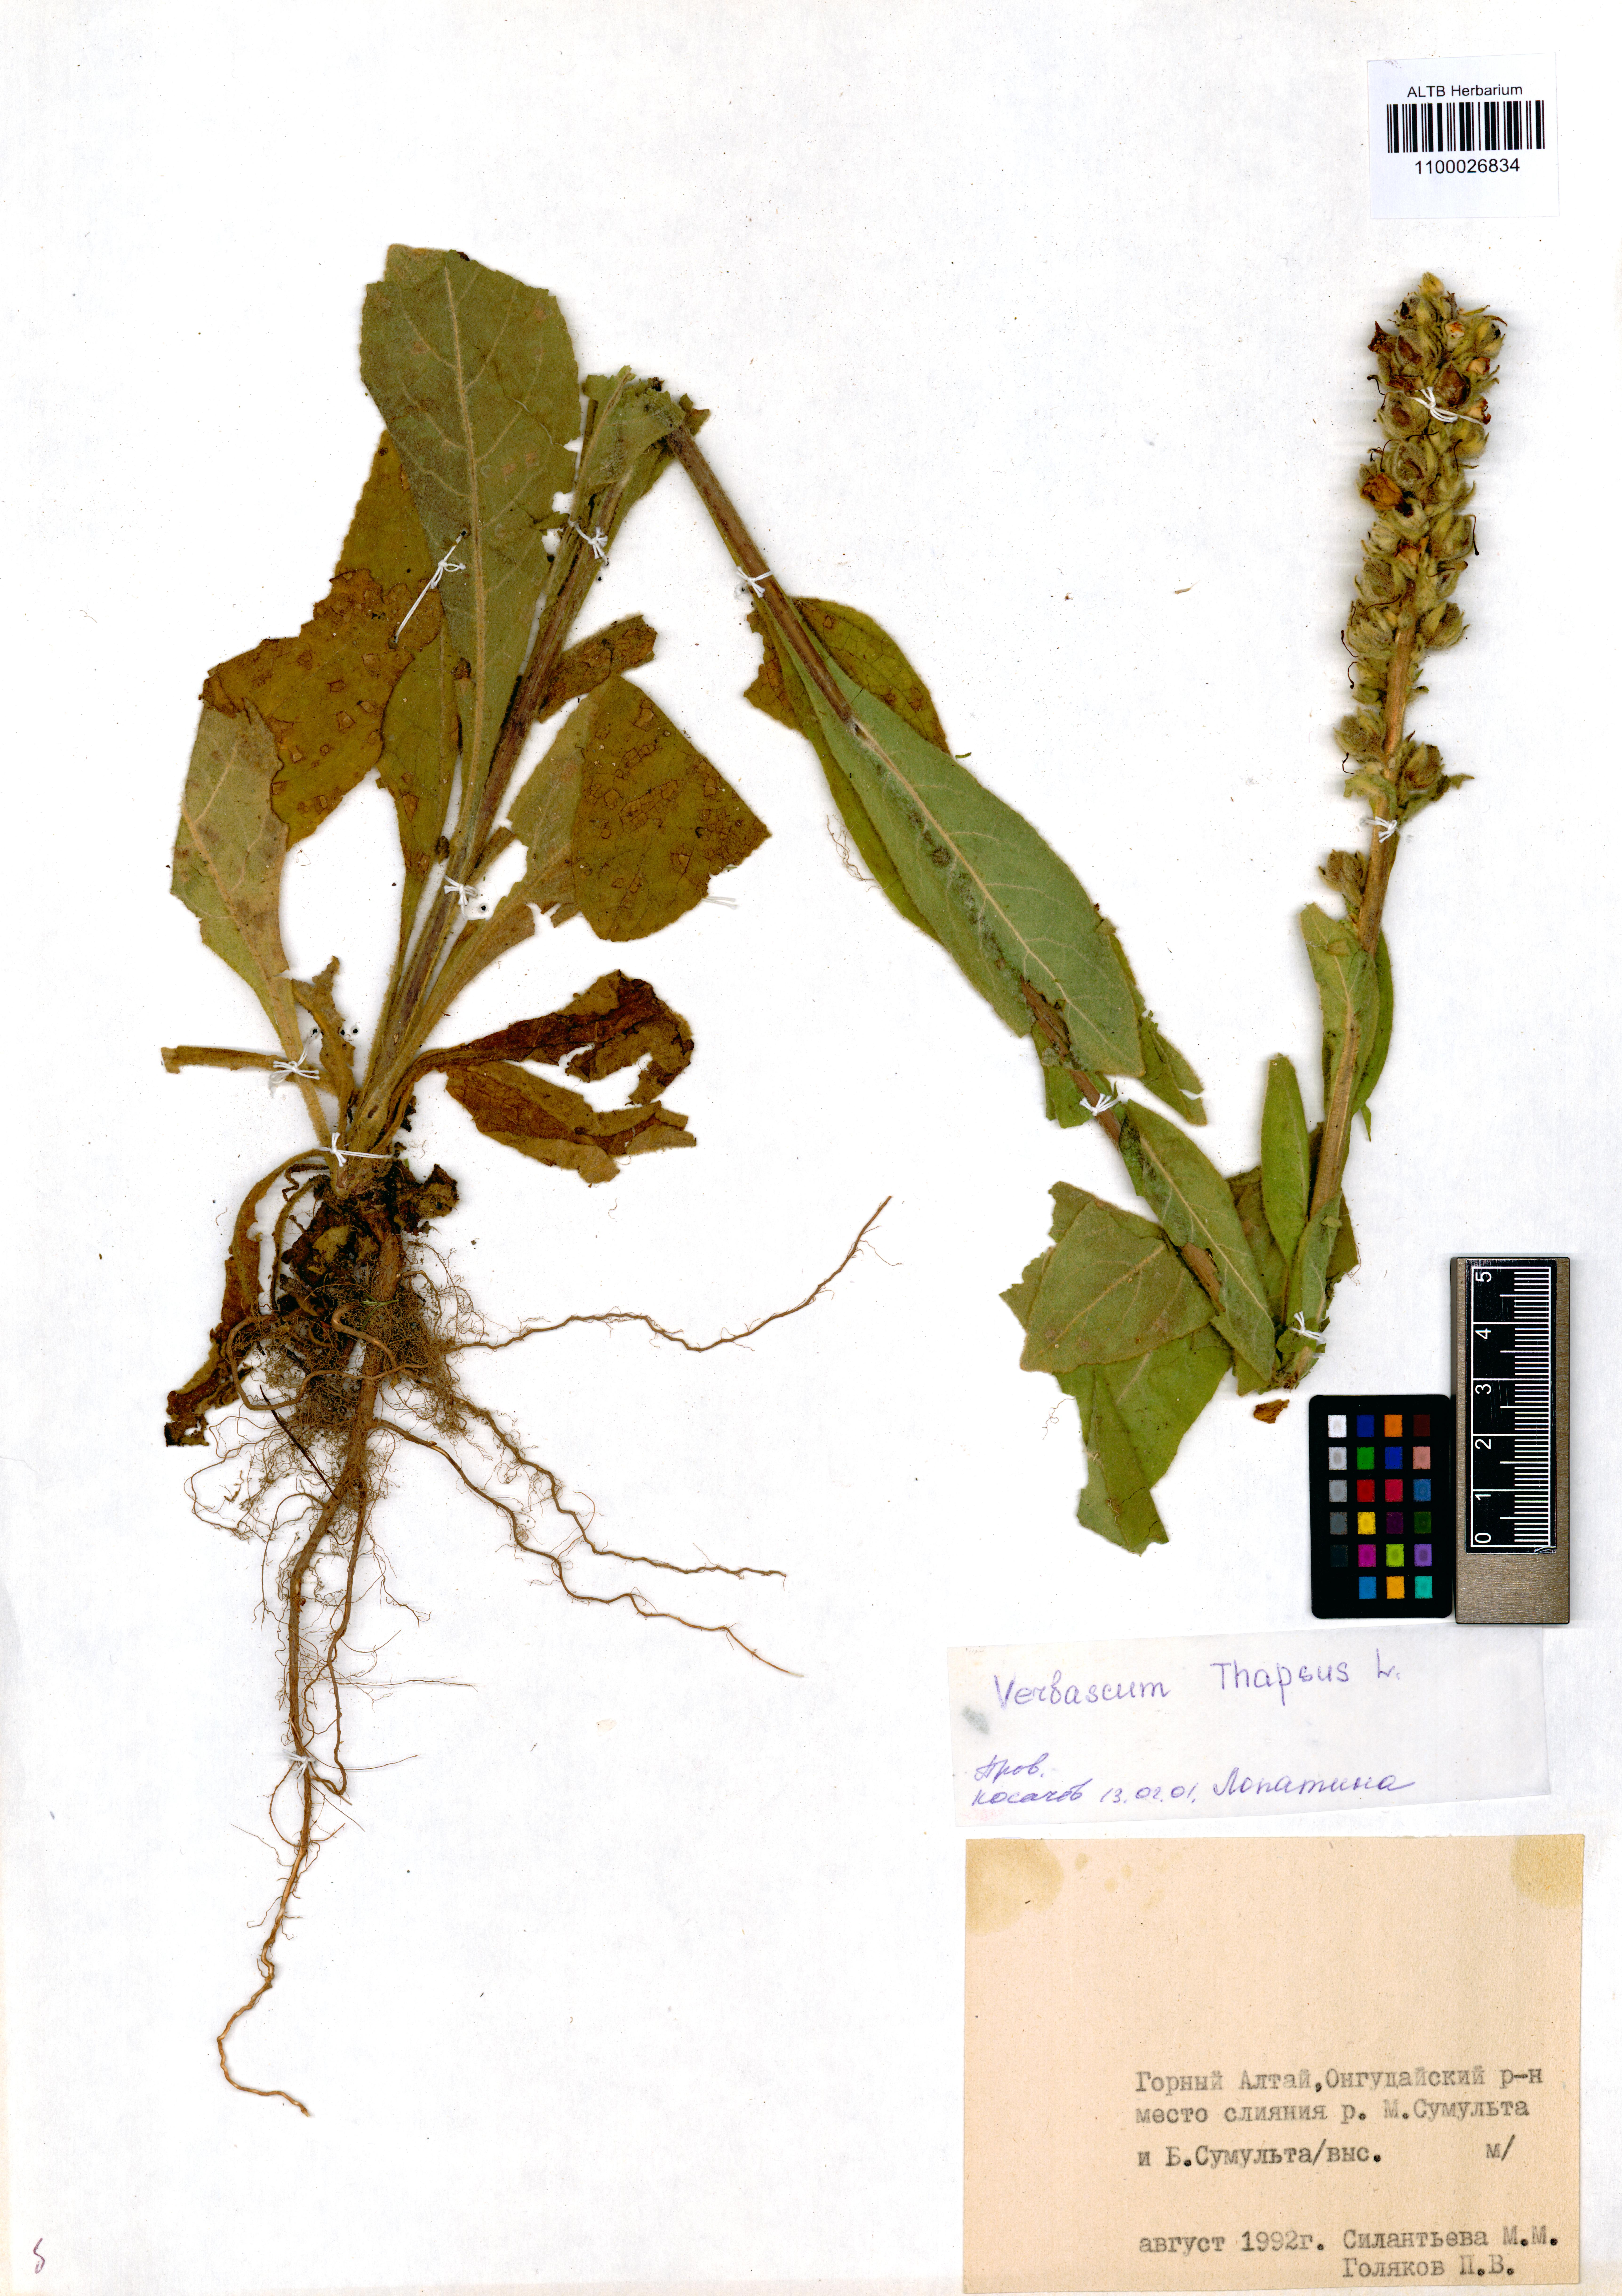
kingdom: Plantae
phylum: Tracheophyta
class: Magnoliopsida
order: Lamiales
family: Scrophulariaceae
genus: Verbascum
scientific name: Verbascum thapsus
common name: Common mullein
